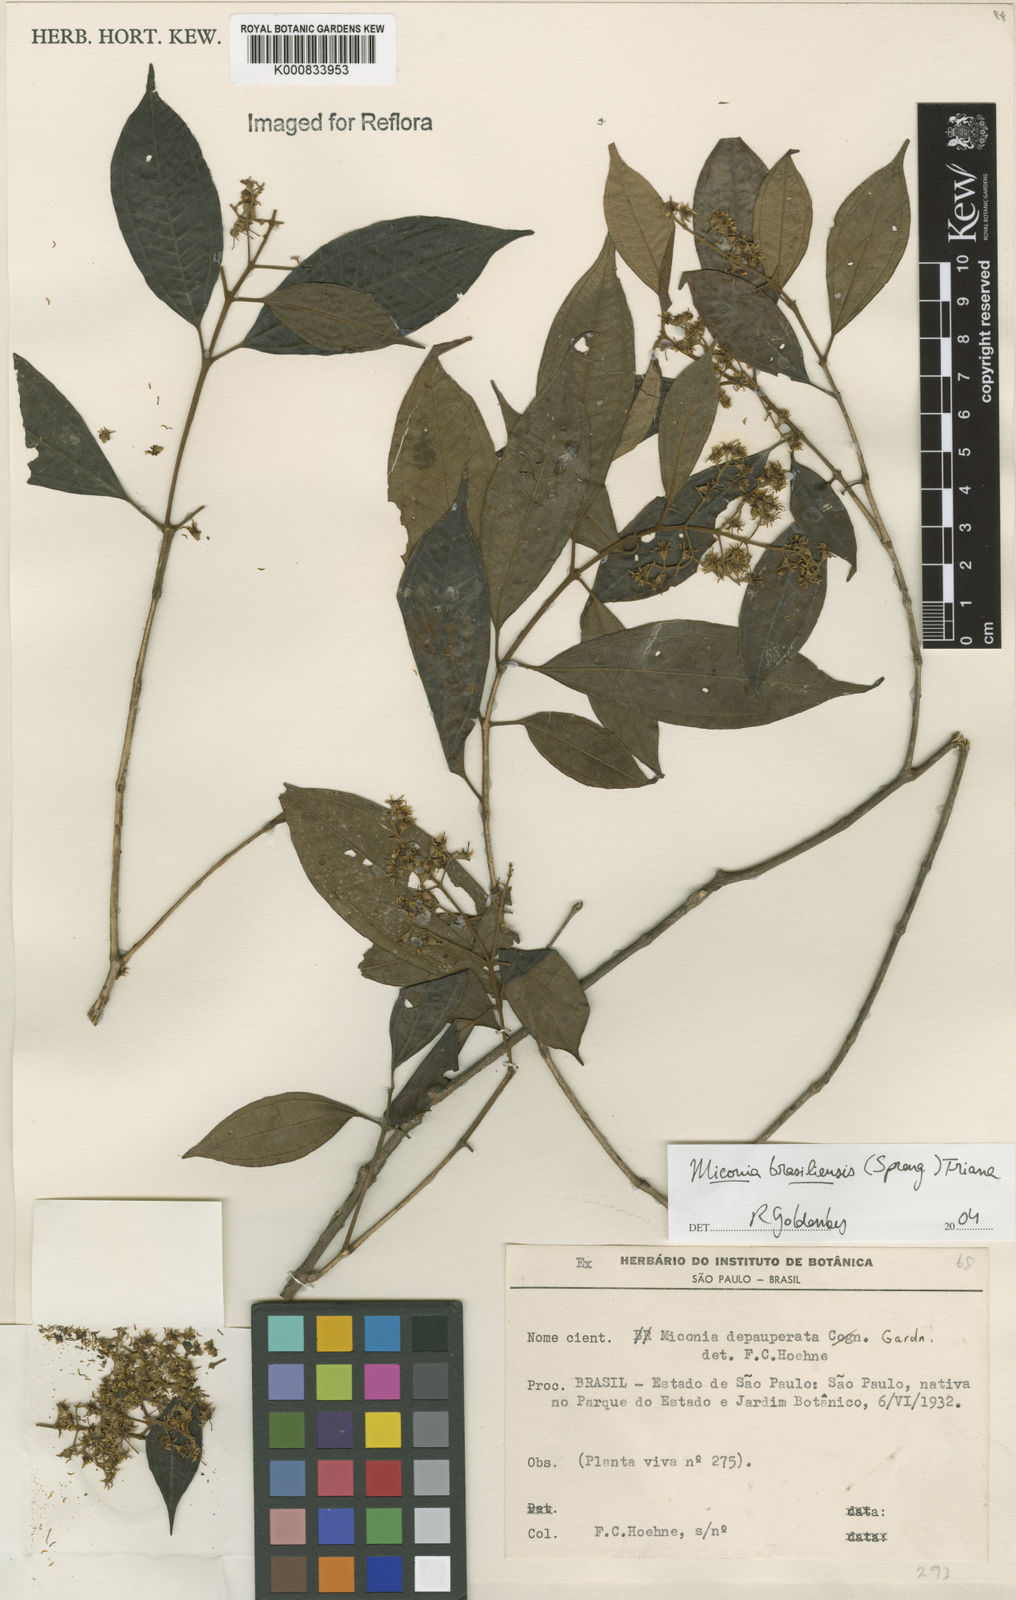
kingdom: Plantae
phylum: Tracheophyta
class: Magnoliopsida
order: Myrtales
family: Melastomataceae
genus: Miconia
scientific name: Miconia brasiliensis
